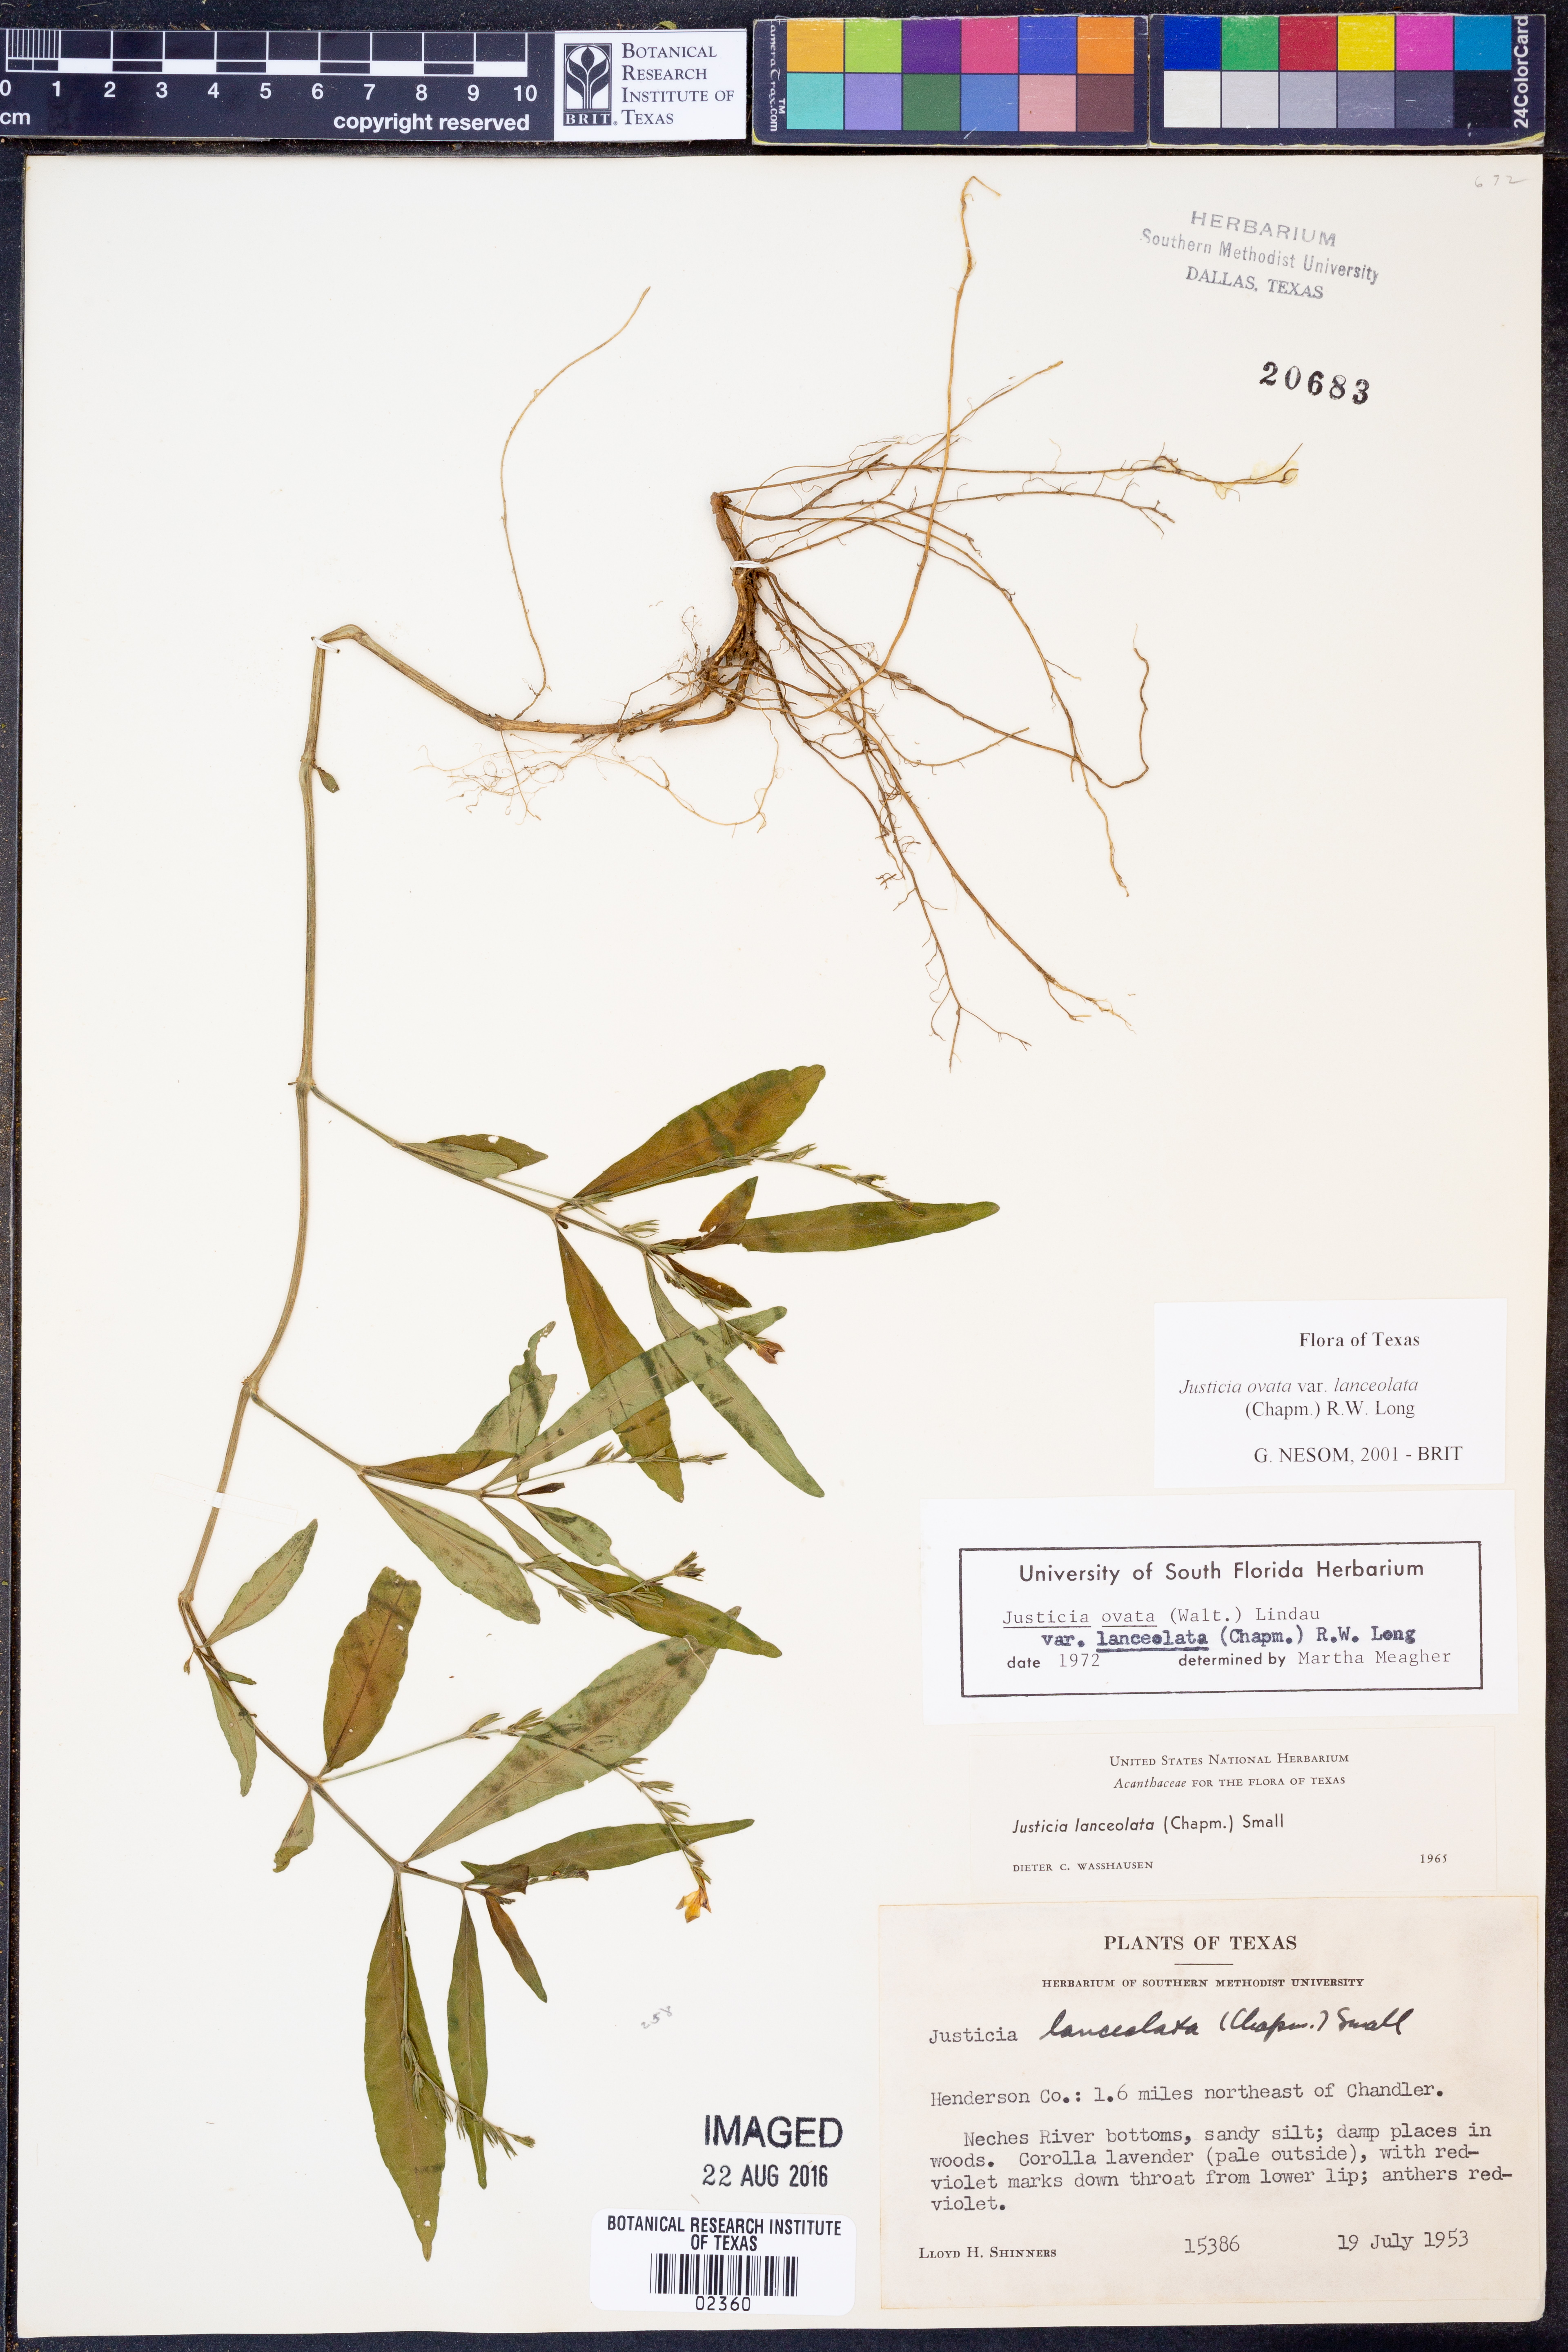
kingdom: Plantae
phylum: Tracheophyta
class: Magnoliopsida
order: Lamiales
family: Acanthaceae
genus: Justicia
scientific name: Justicia lanceolata
